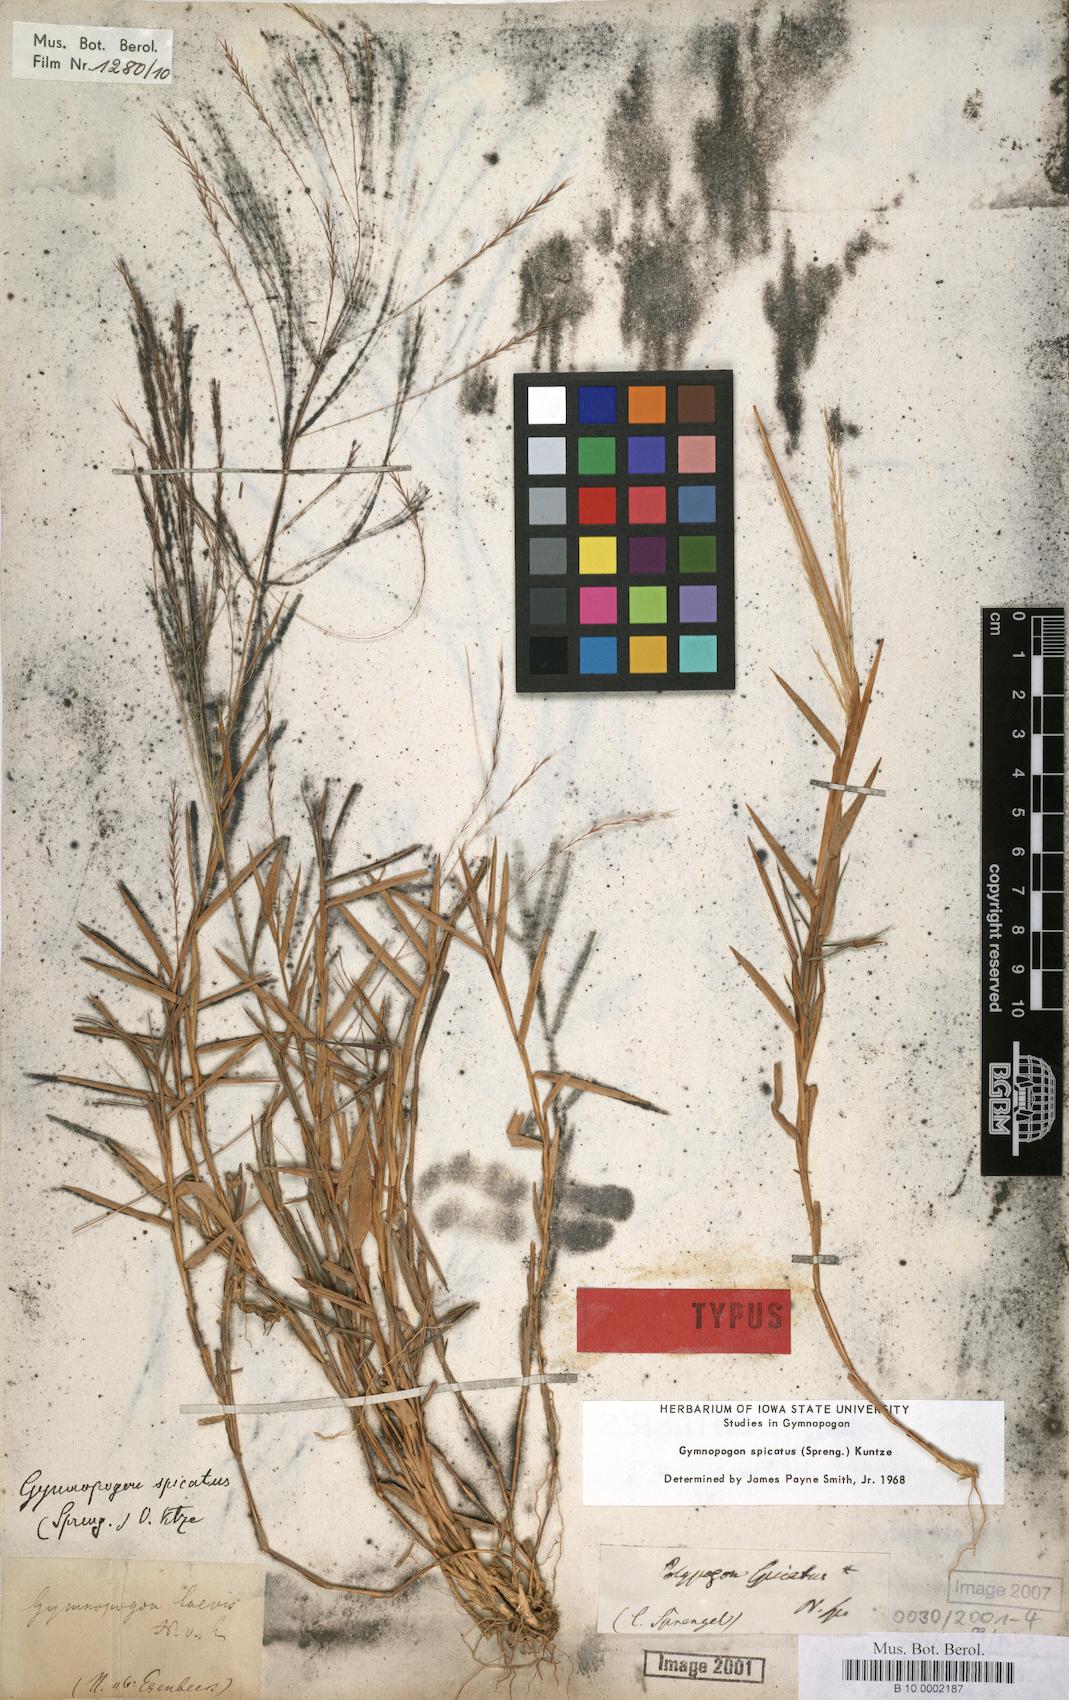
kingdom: Plantae
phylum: Tracheophyta
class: Liliopsida
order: Poales
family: Poaceae
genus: Gymnopogon
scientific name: Gymnopogon spicatus
